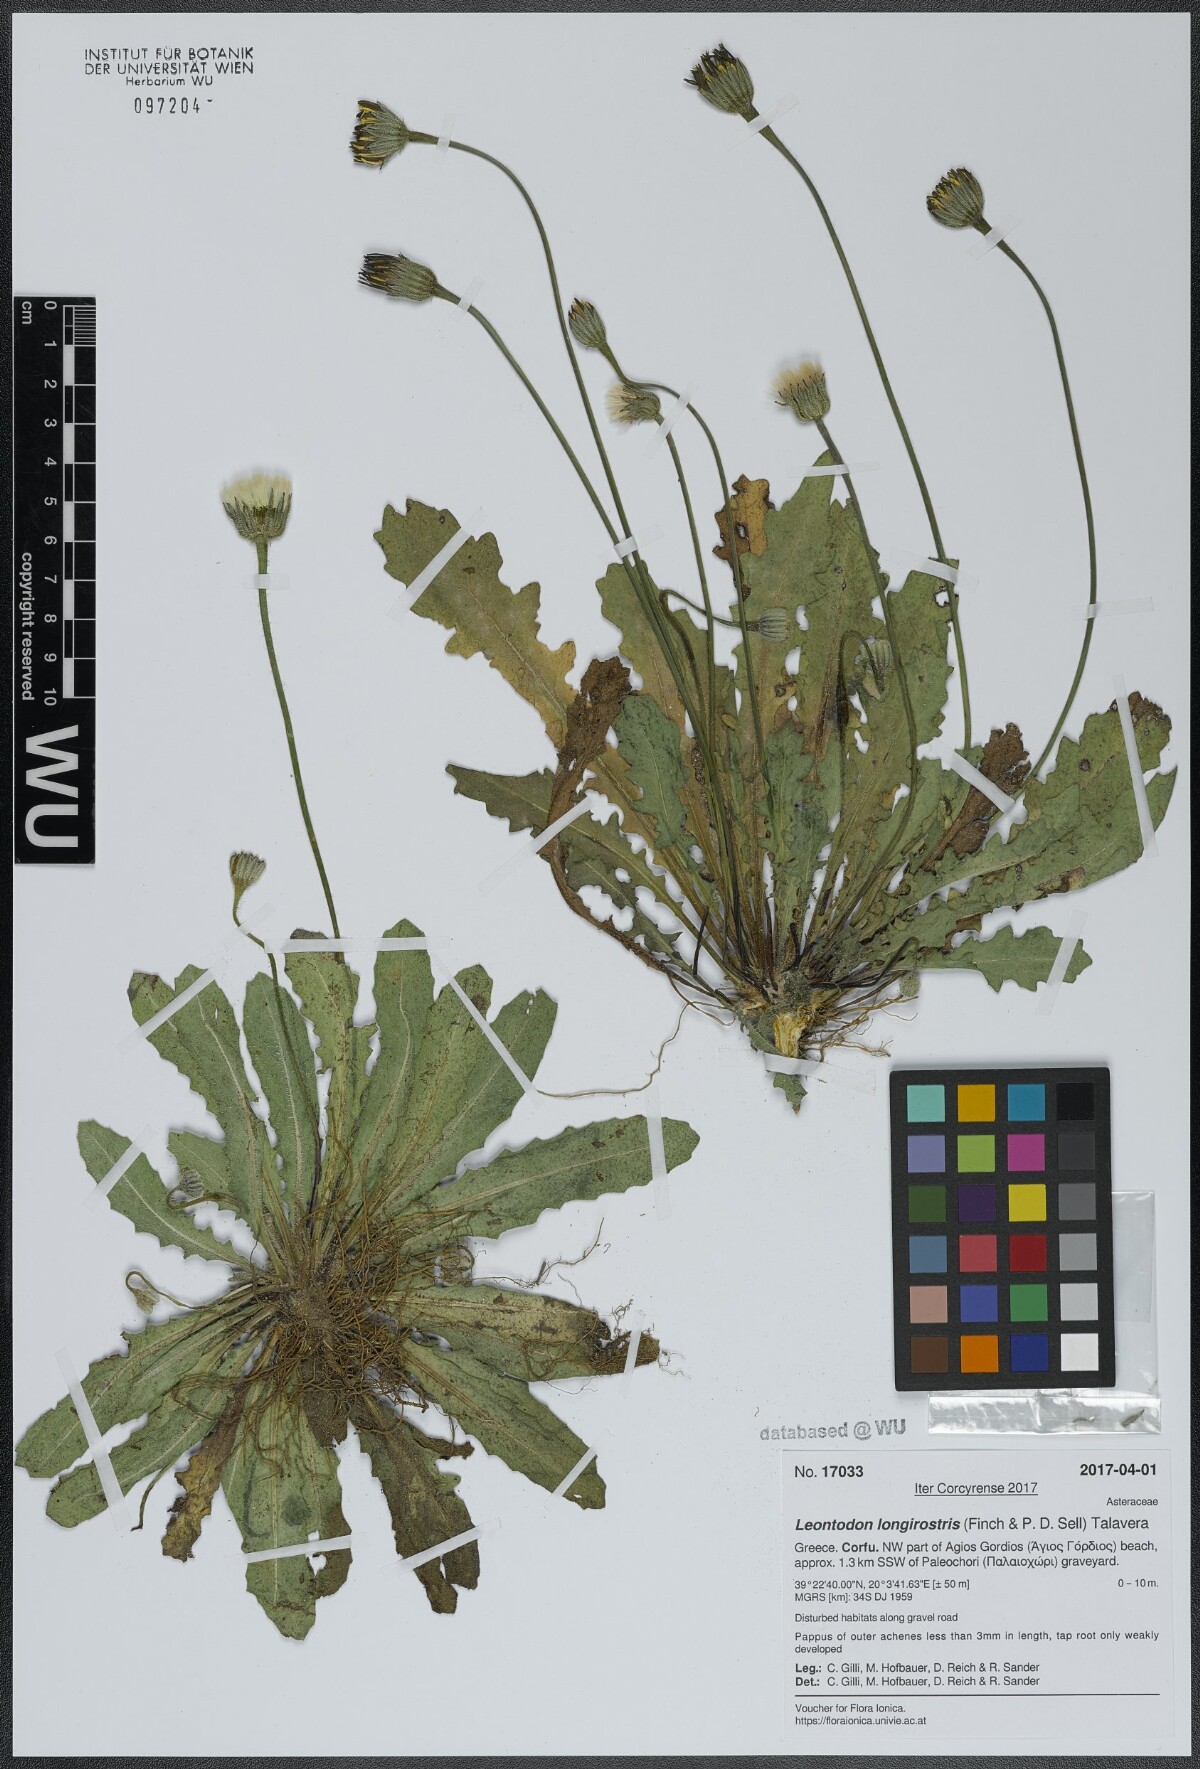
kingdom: Plantae
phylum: Tracheophyta
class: Magnoliopsida
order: Asterales
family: Asteraceae
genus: Thrincia
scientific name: Thrincia hispida
